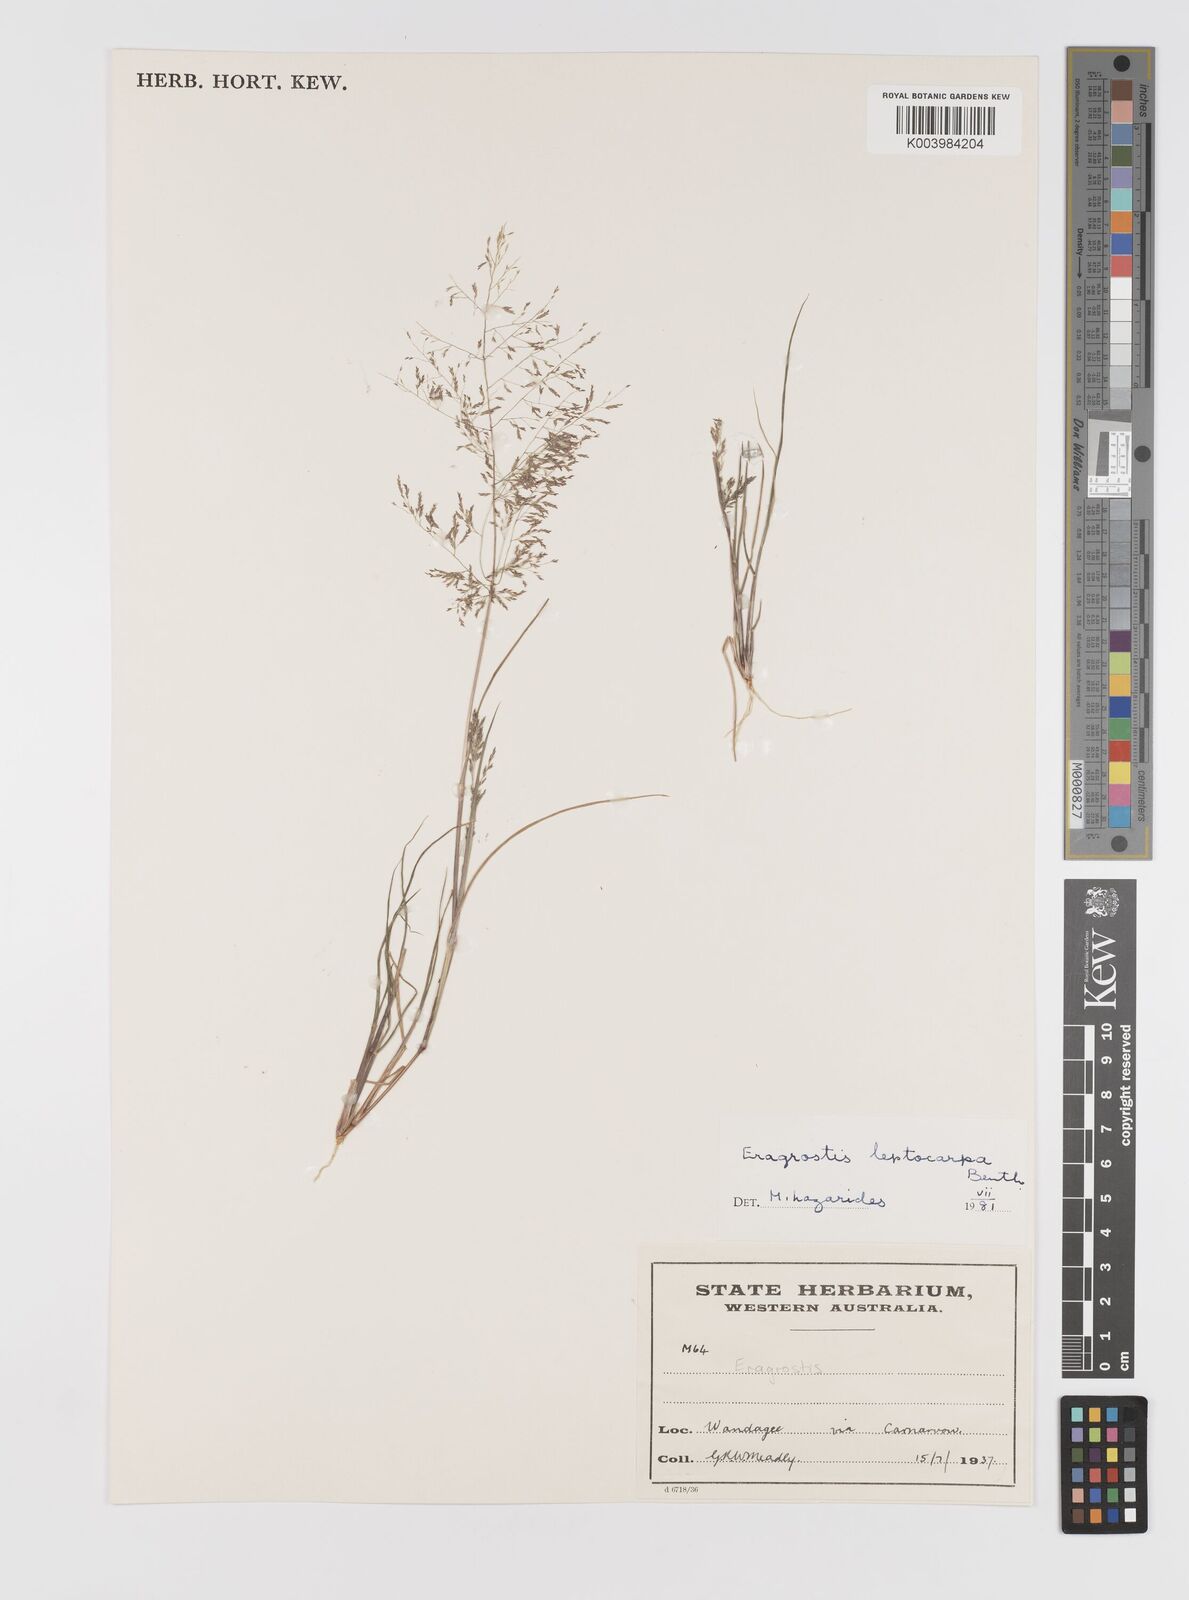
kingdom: Plantae
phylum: Tracheophyta
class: Liliopsida
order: Poales
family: Poaceae
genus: Eragrostis
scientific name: Eragrostis leptocarpa
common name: Drooping love grass
